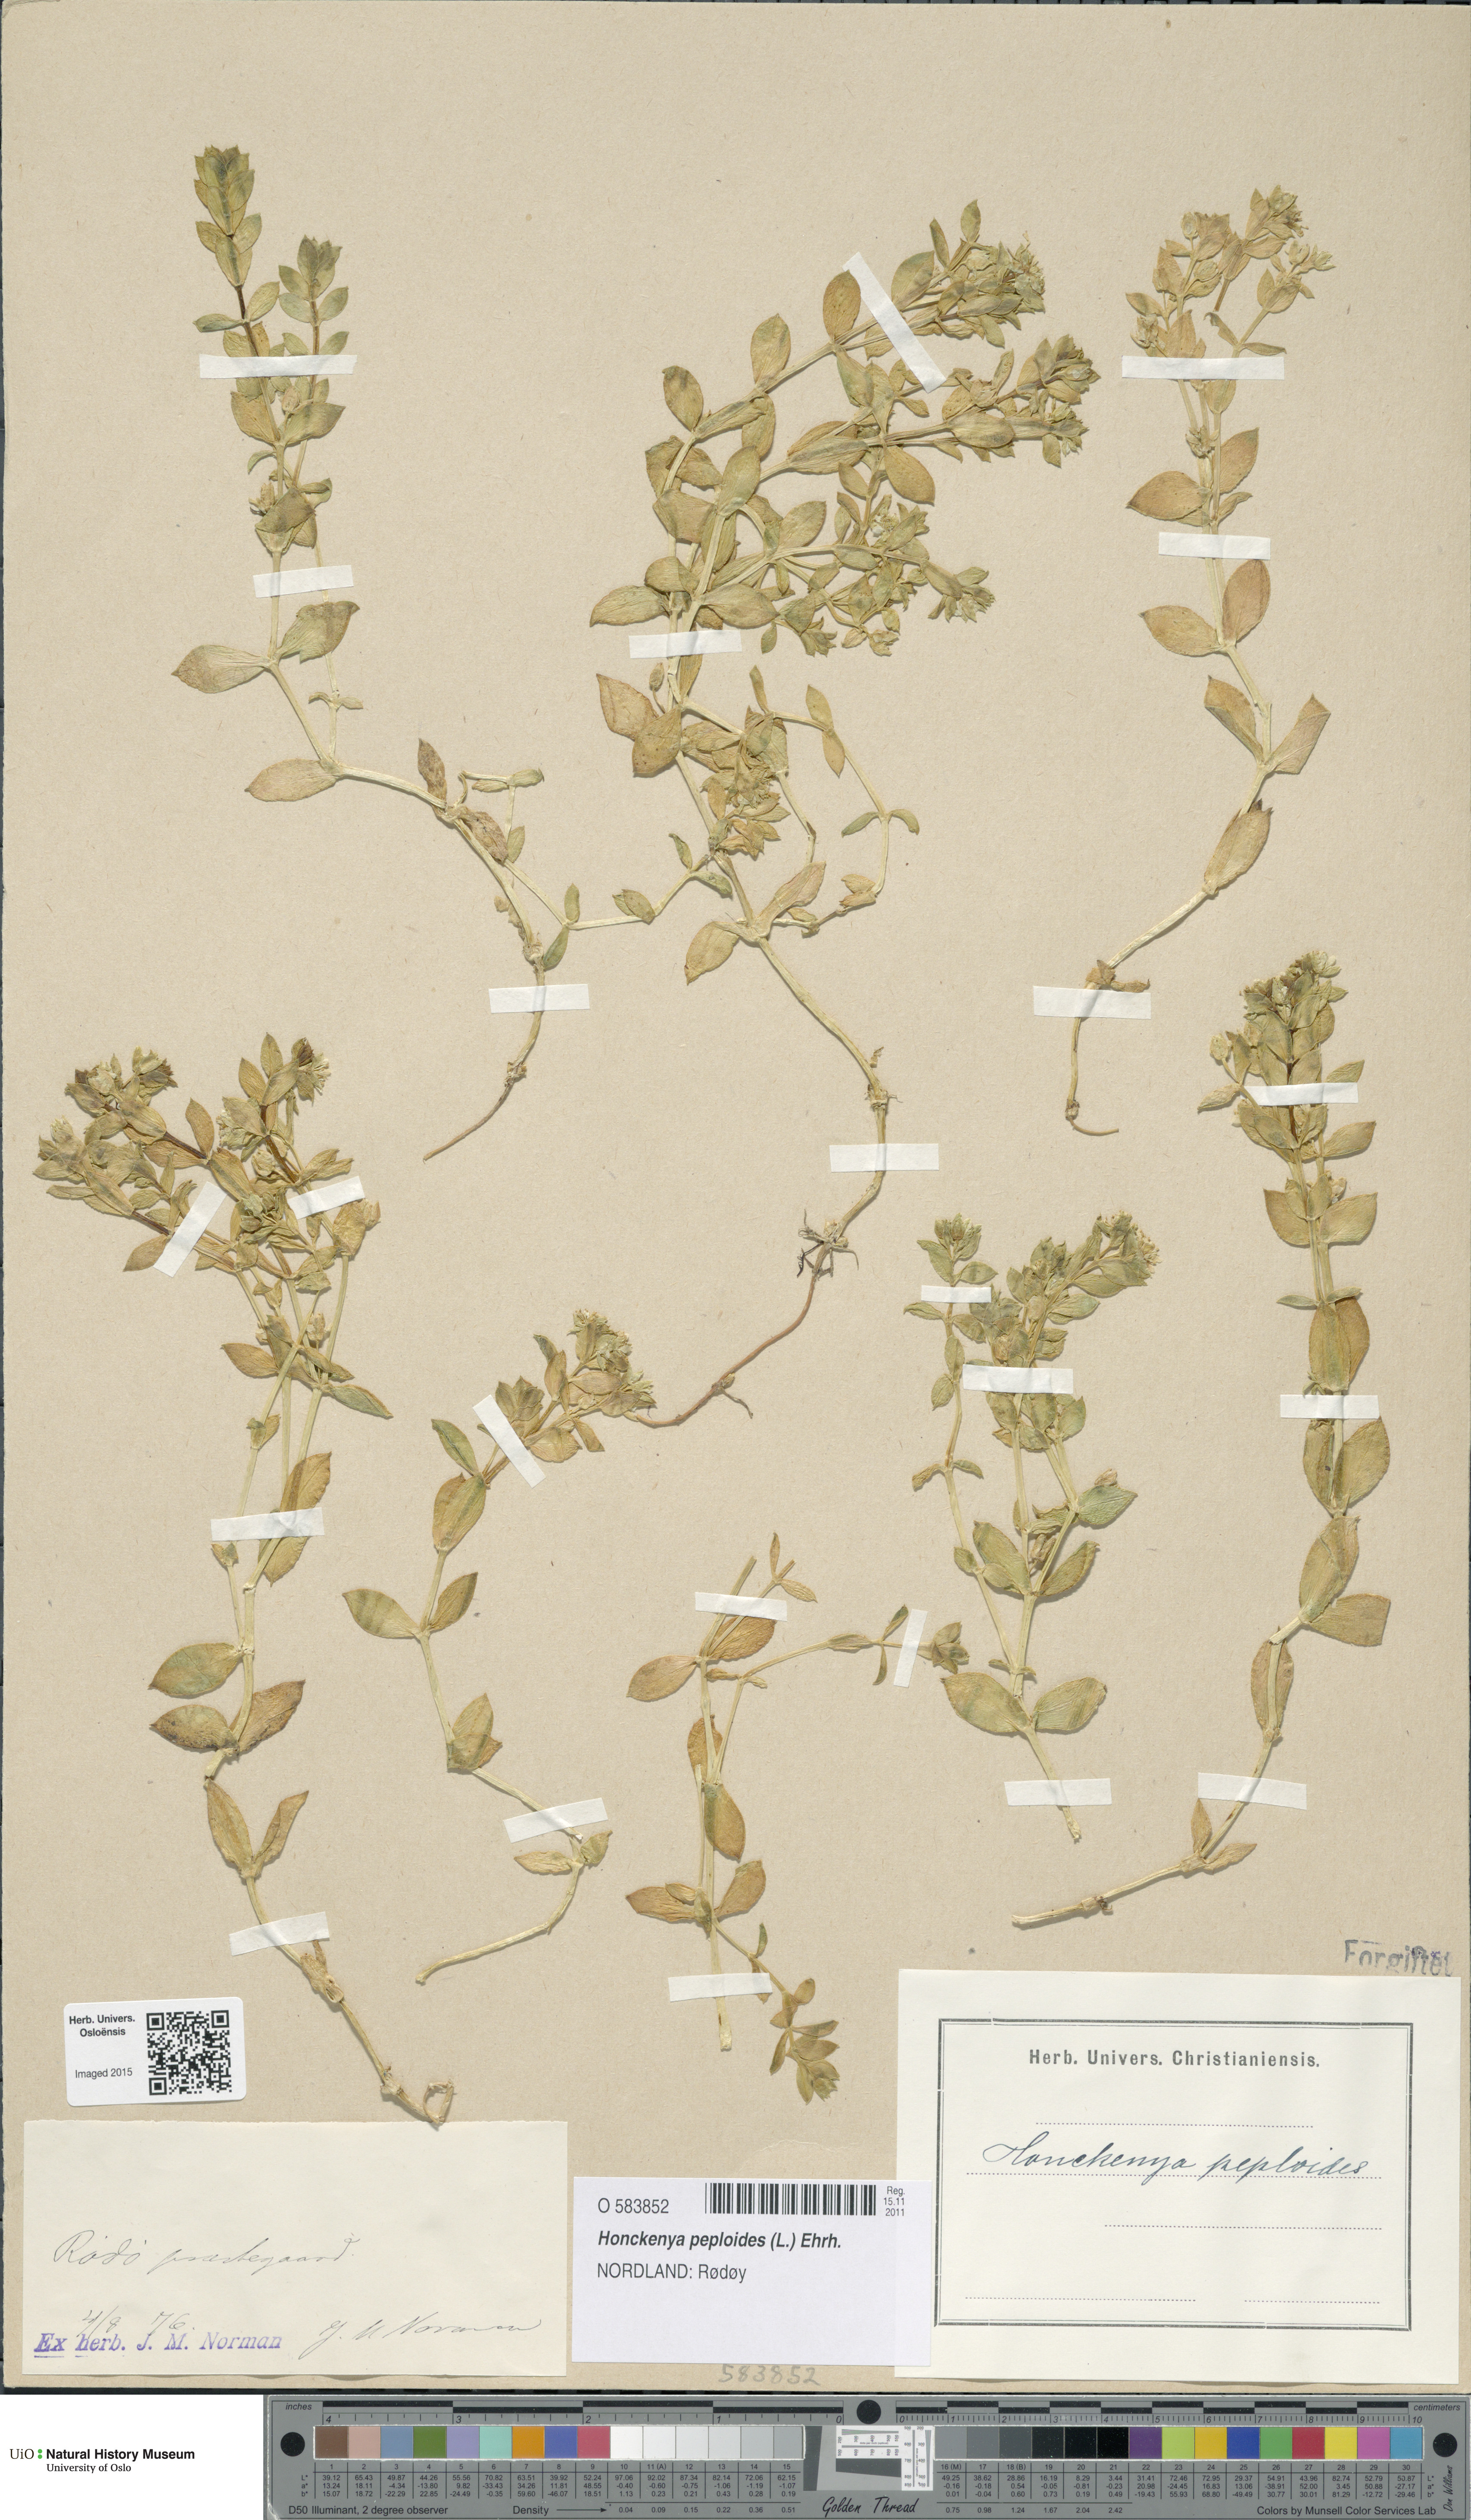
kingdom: Plantae
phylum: Tracheophyta
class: Magnoliopsida
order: Caryophyllales
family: Caryophyllaceae
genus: Honckenya
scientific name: Honckenya peploides
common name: Sea sandwort
